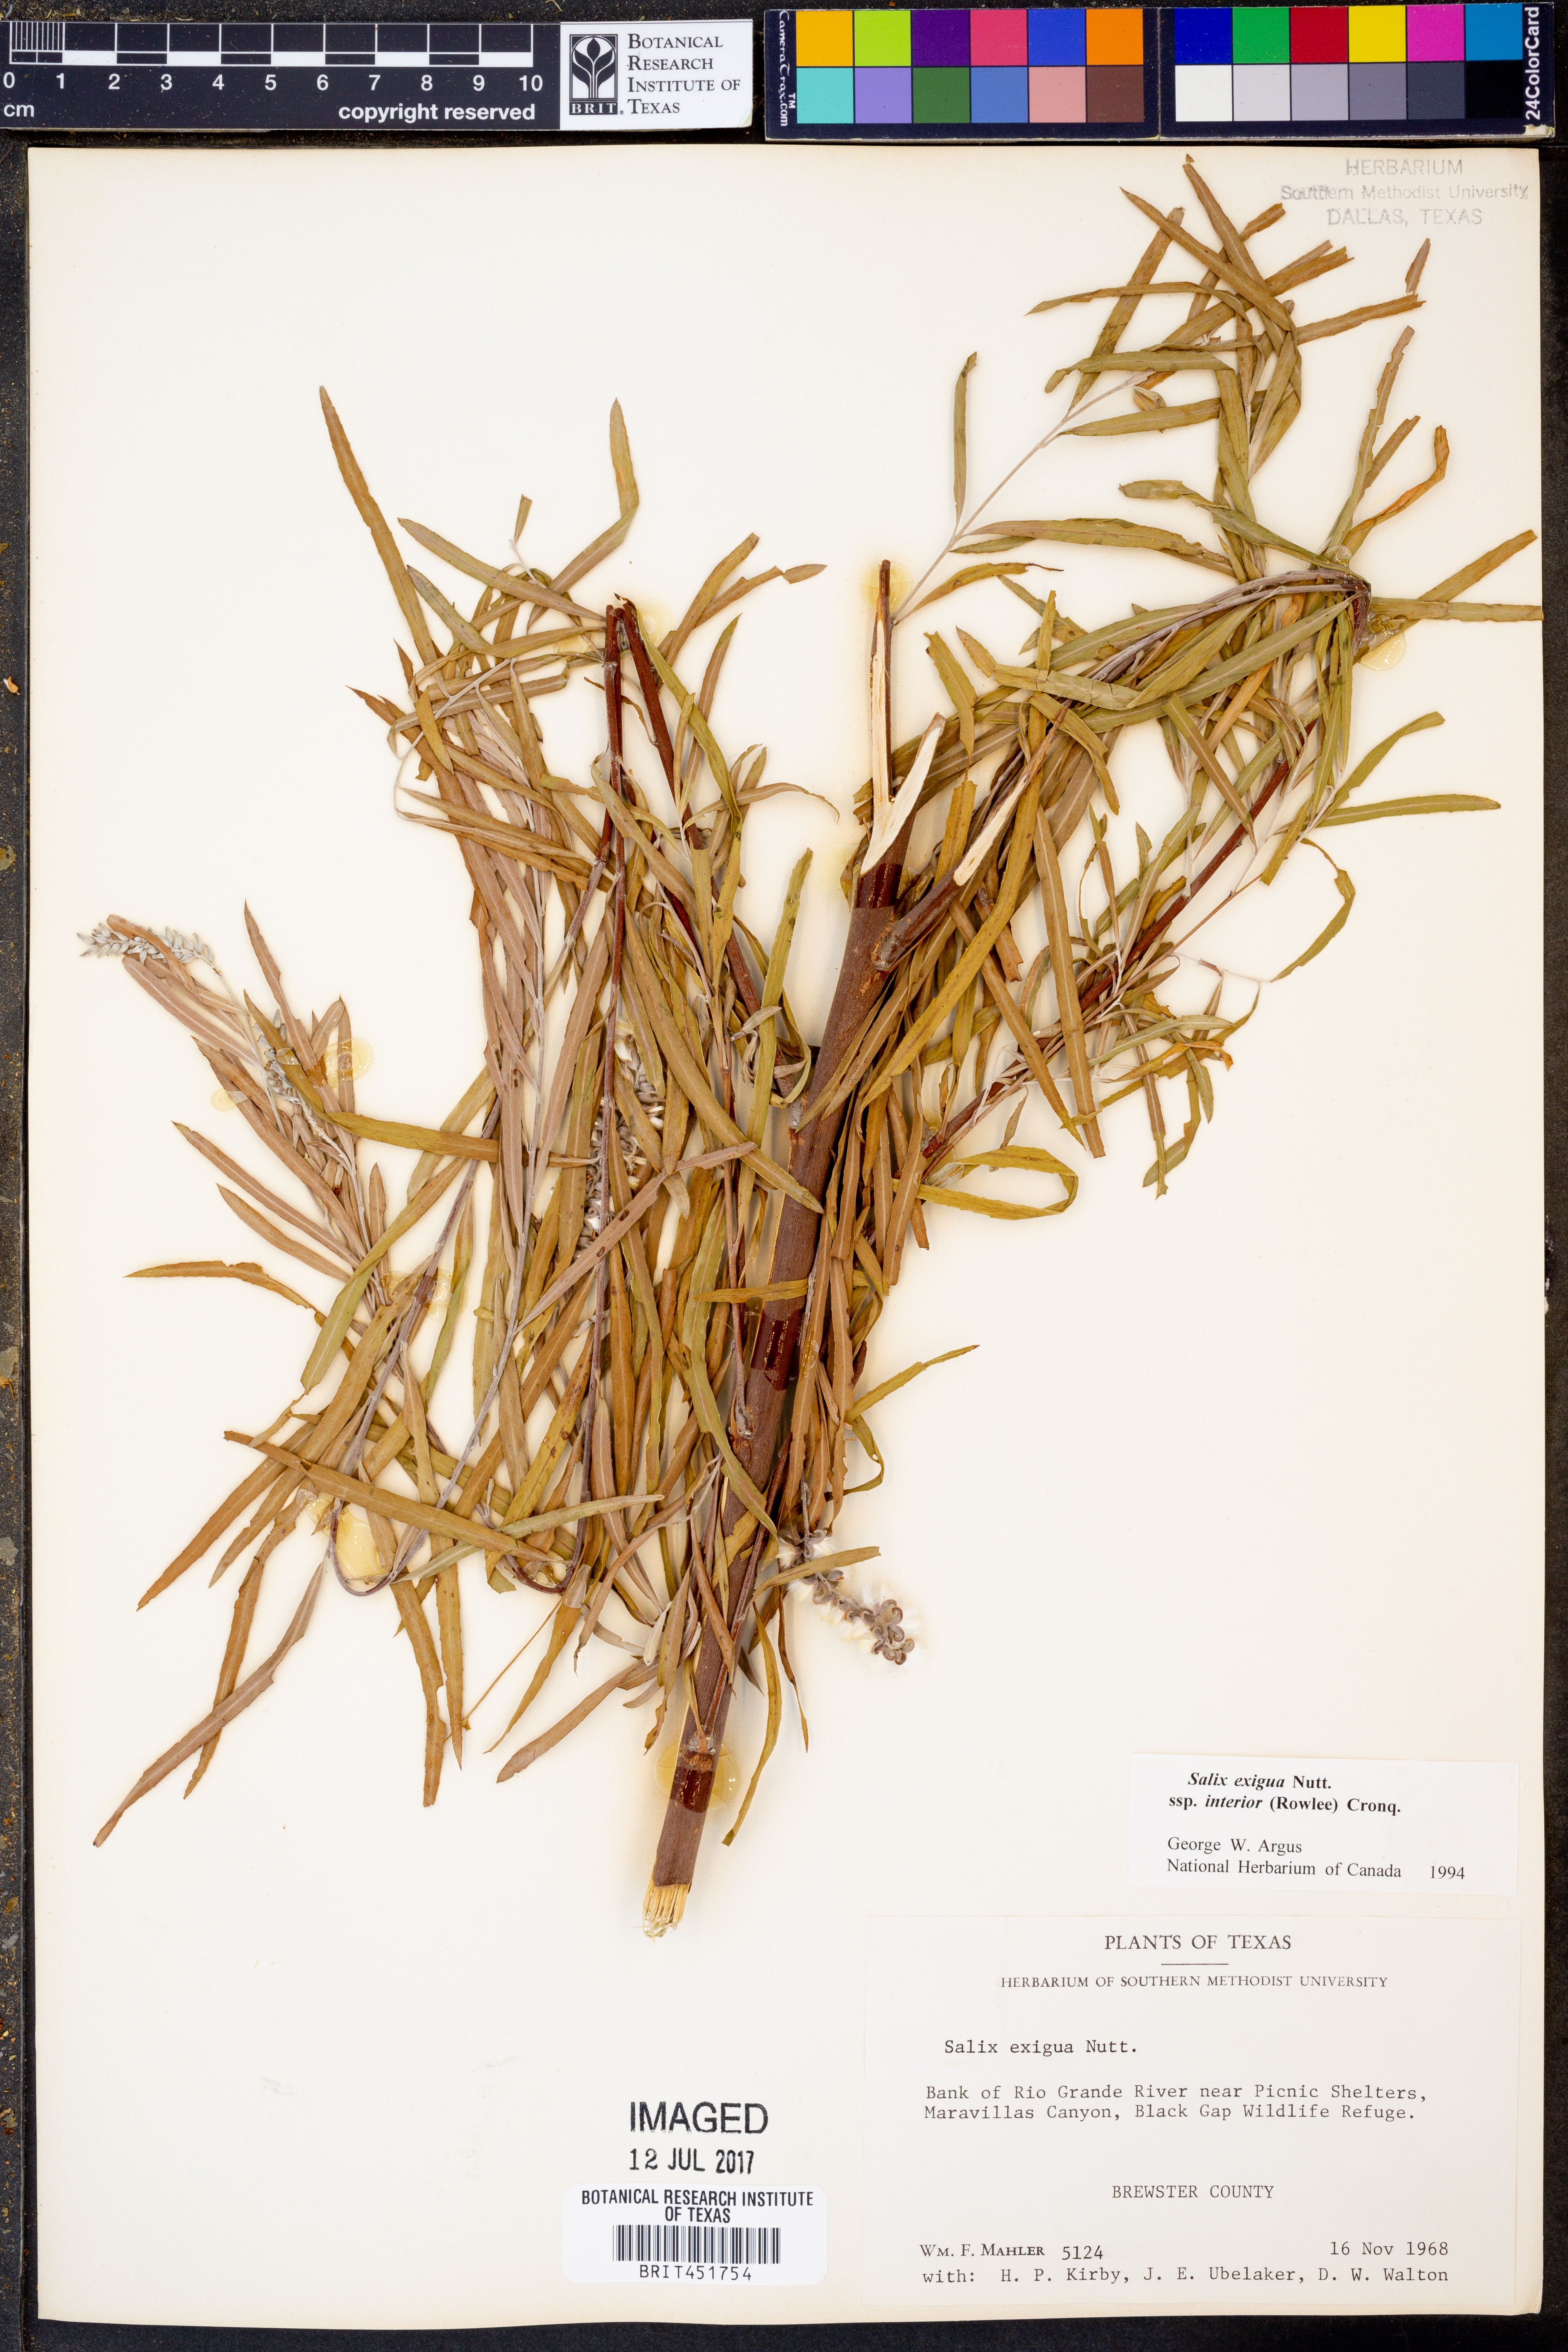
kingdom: Plantae
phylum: Tracheophyta
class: Magnoliopsida
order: Malpighiales
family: Salicaceae
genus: Salix
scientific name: Salix interior
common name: Sandbar willow
